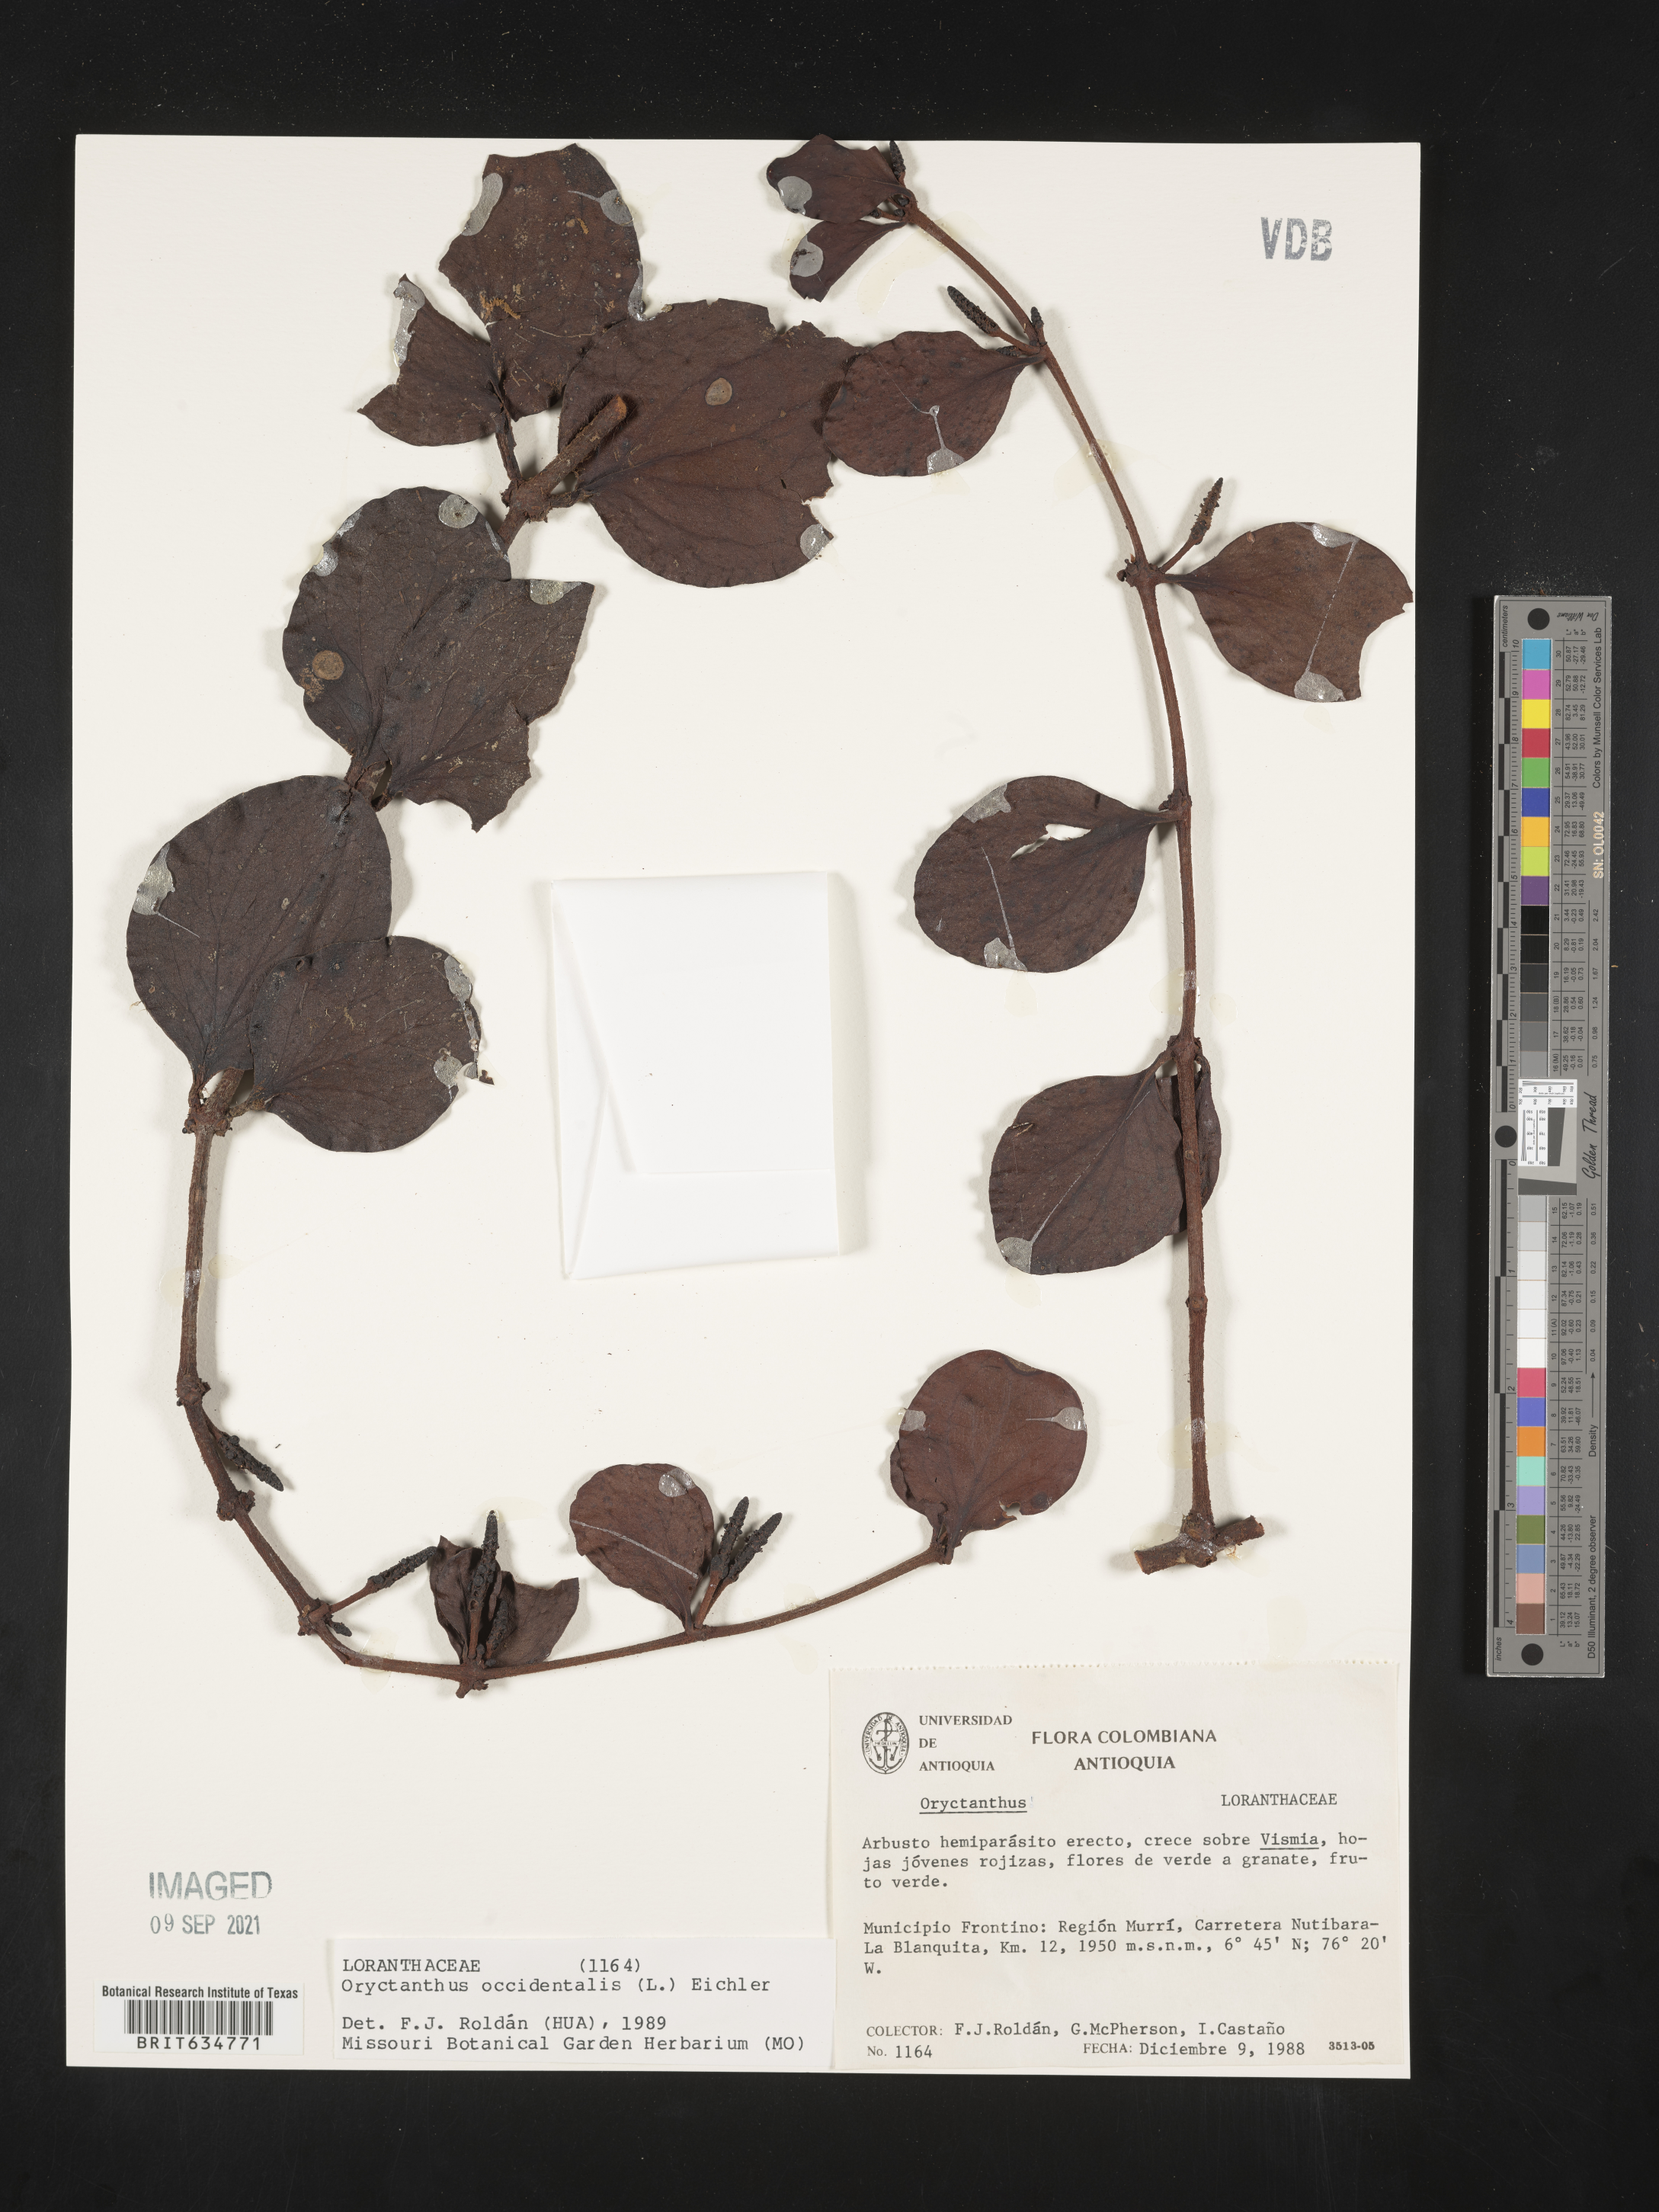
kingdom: Plantae
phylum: Tracheophyta
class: Magnoliopsida
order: Santalales
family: Loranthaceae
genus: Oryctanthus
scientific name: Oryctanthus
